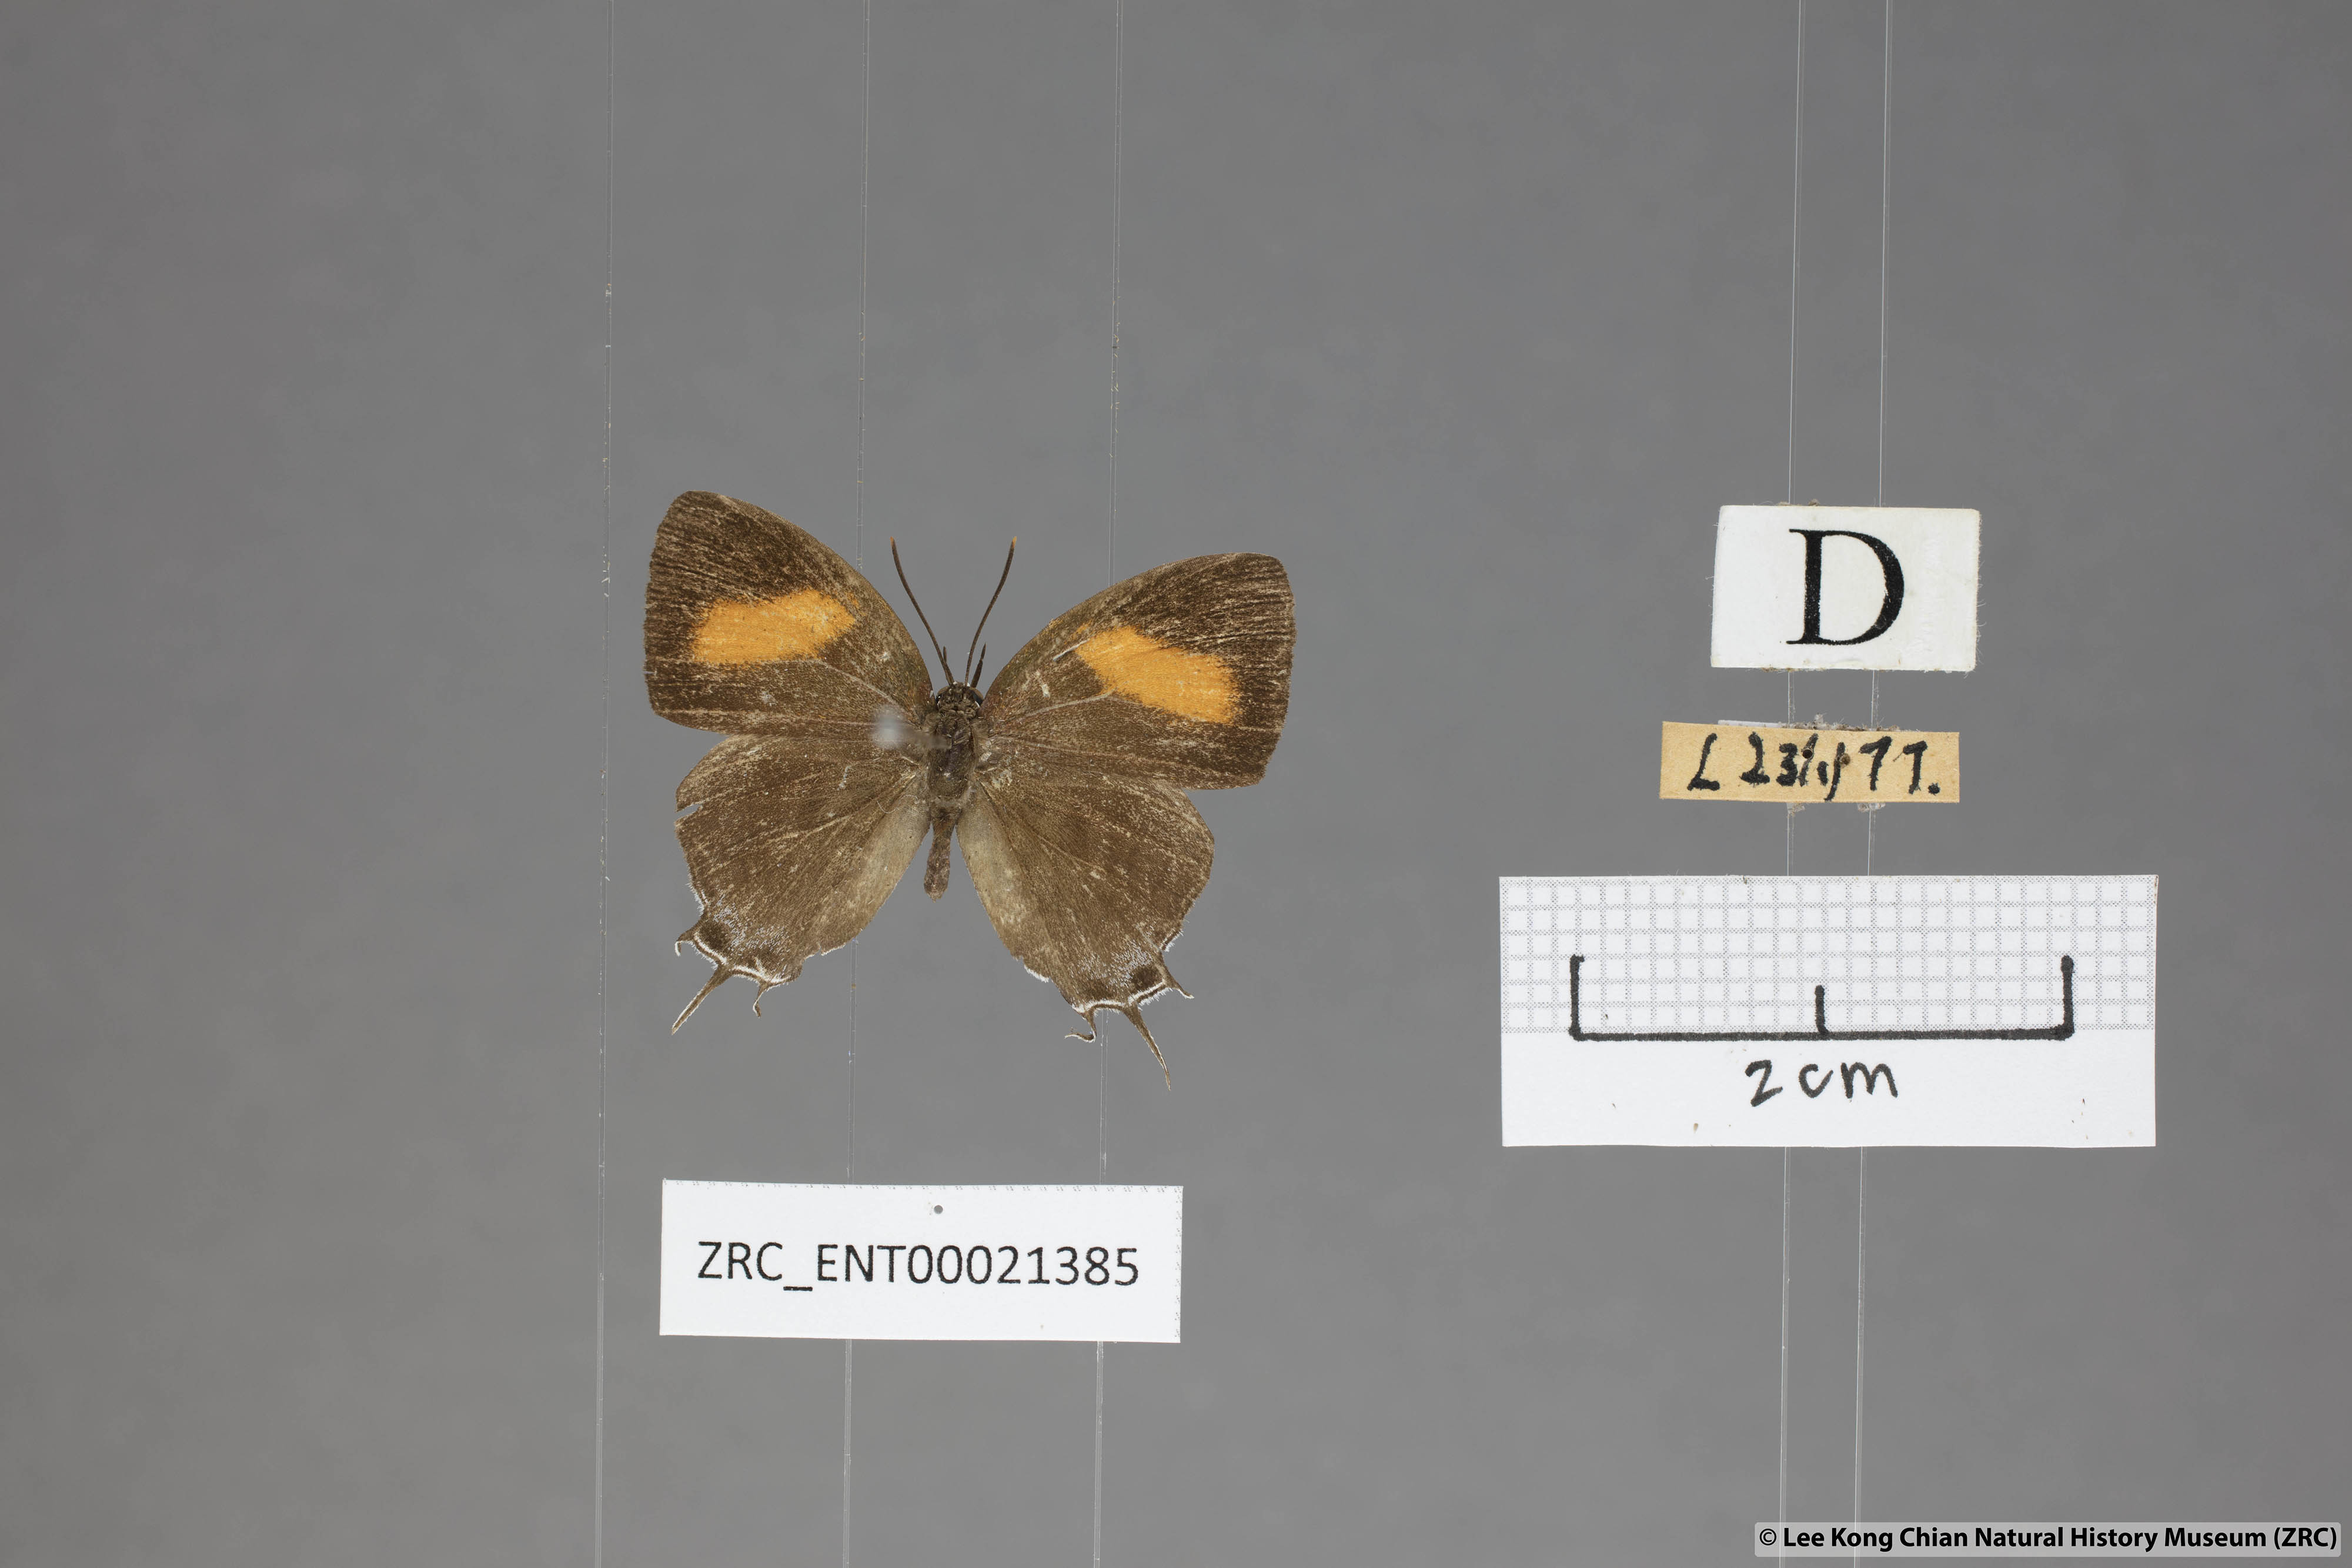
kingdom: Animalia
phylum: Arthropoda
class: Insecta
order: Lepidoptera
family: Lycaenidae
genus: Drupadia
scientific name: Drupadia niasica
